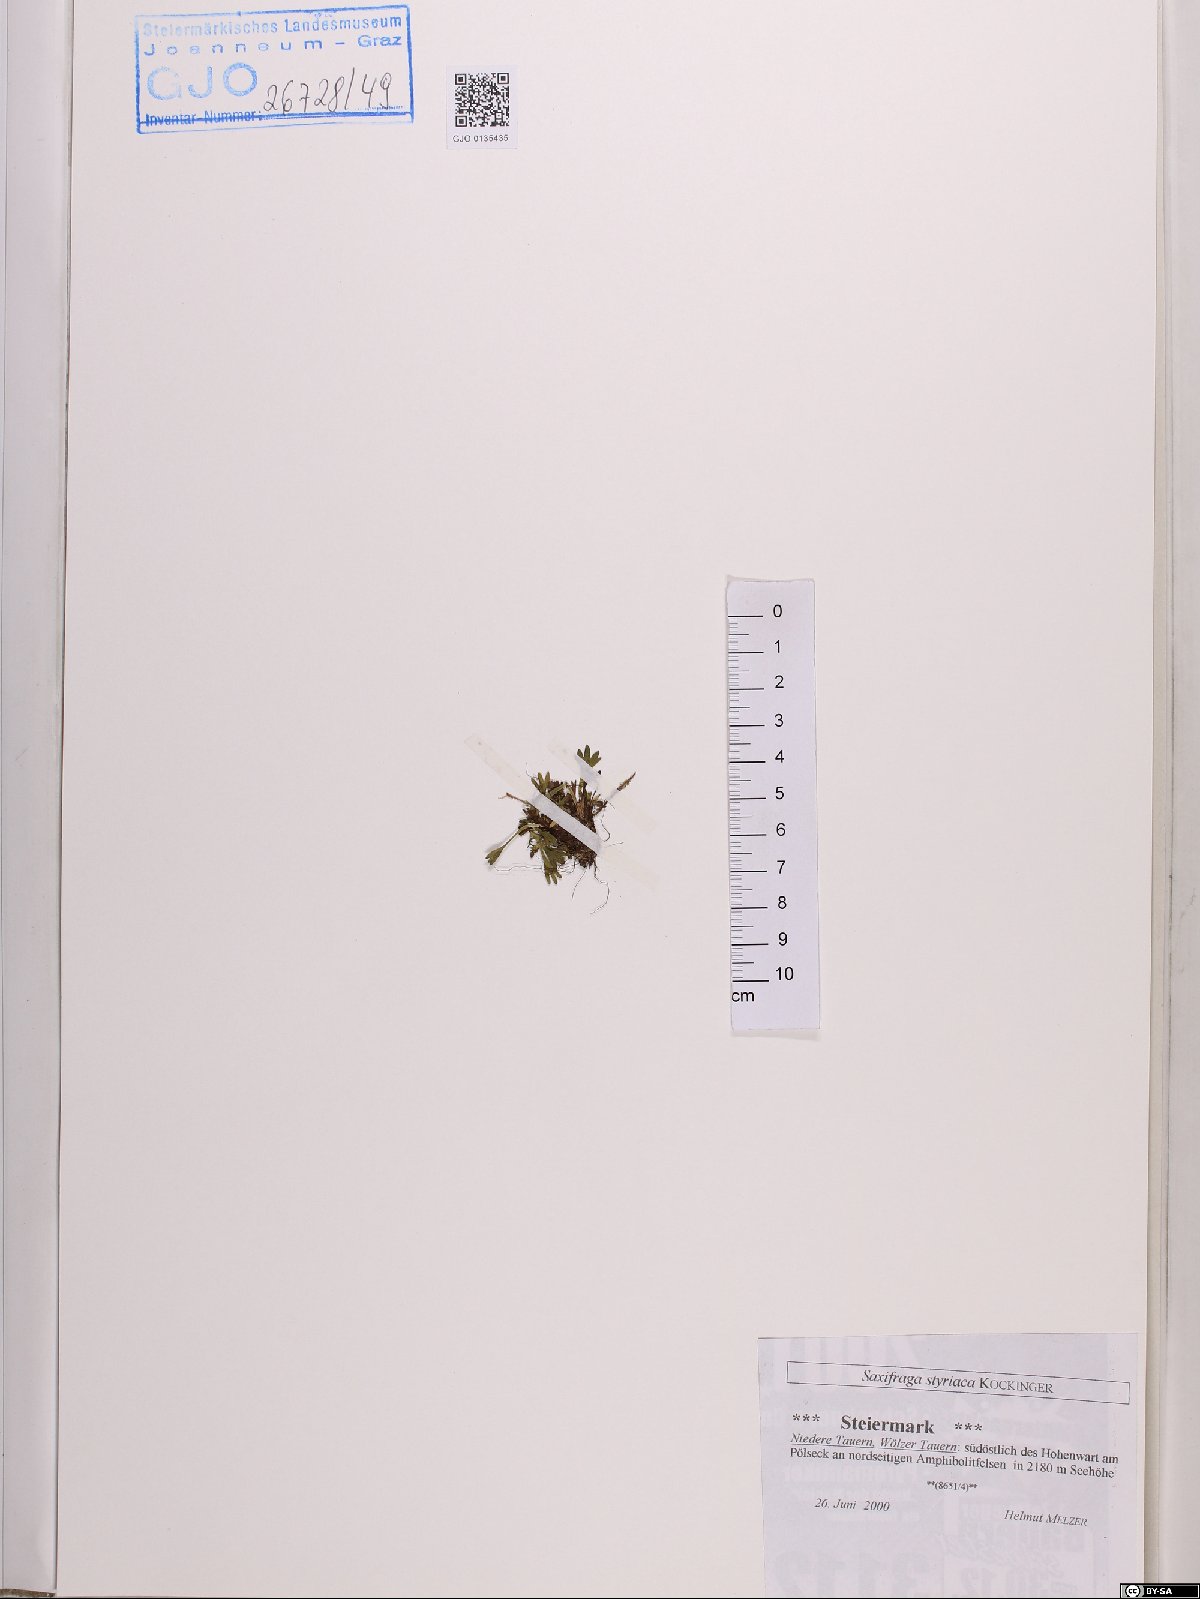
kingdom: Plantae
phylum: Tracheophyta
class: Magnoliopsida
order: Saxifragales
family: Saxifragaceae
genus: Saxifraga
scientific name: Saxifraga styriaca
